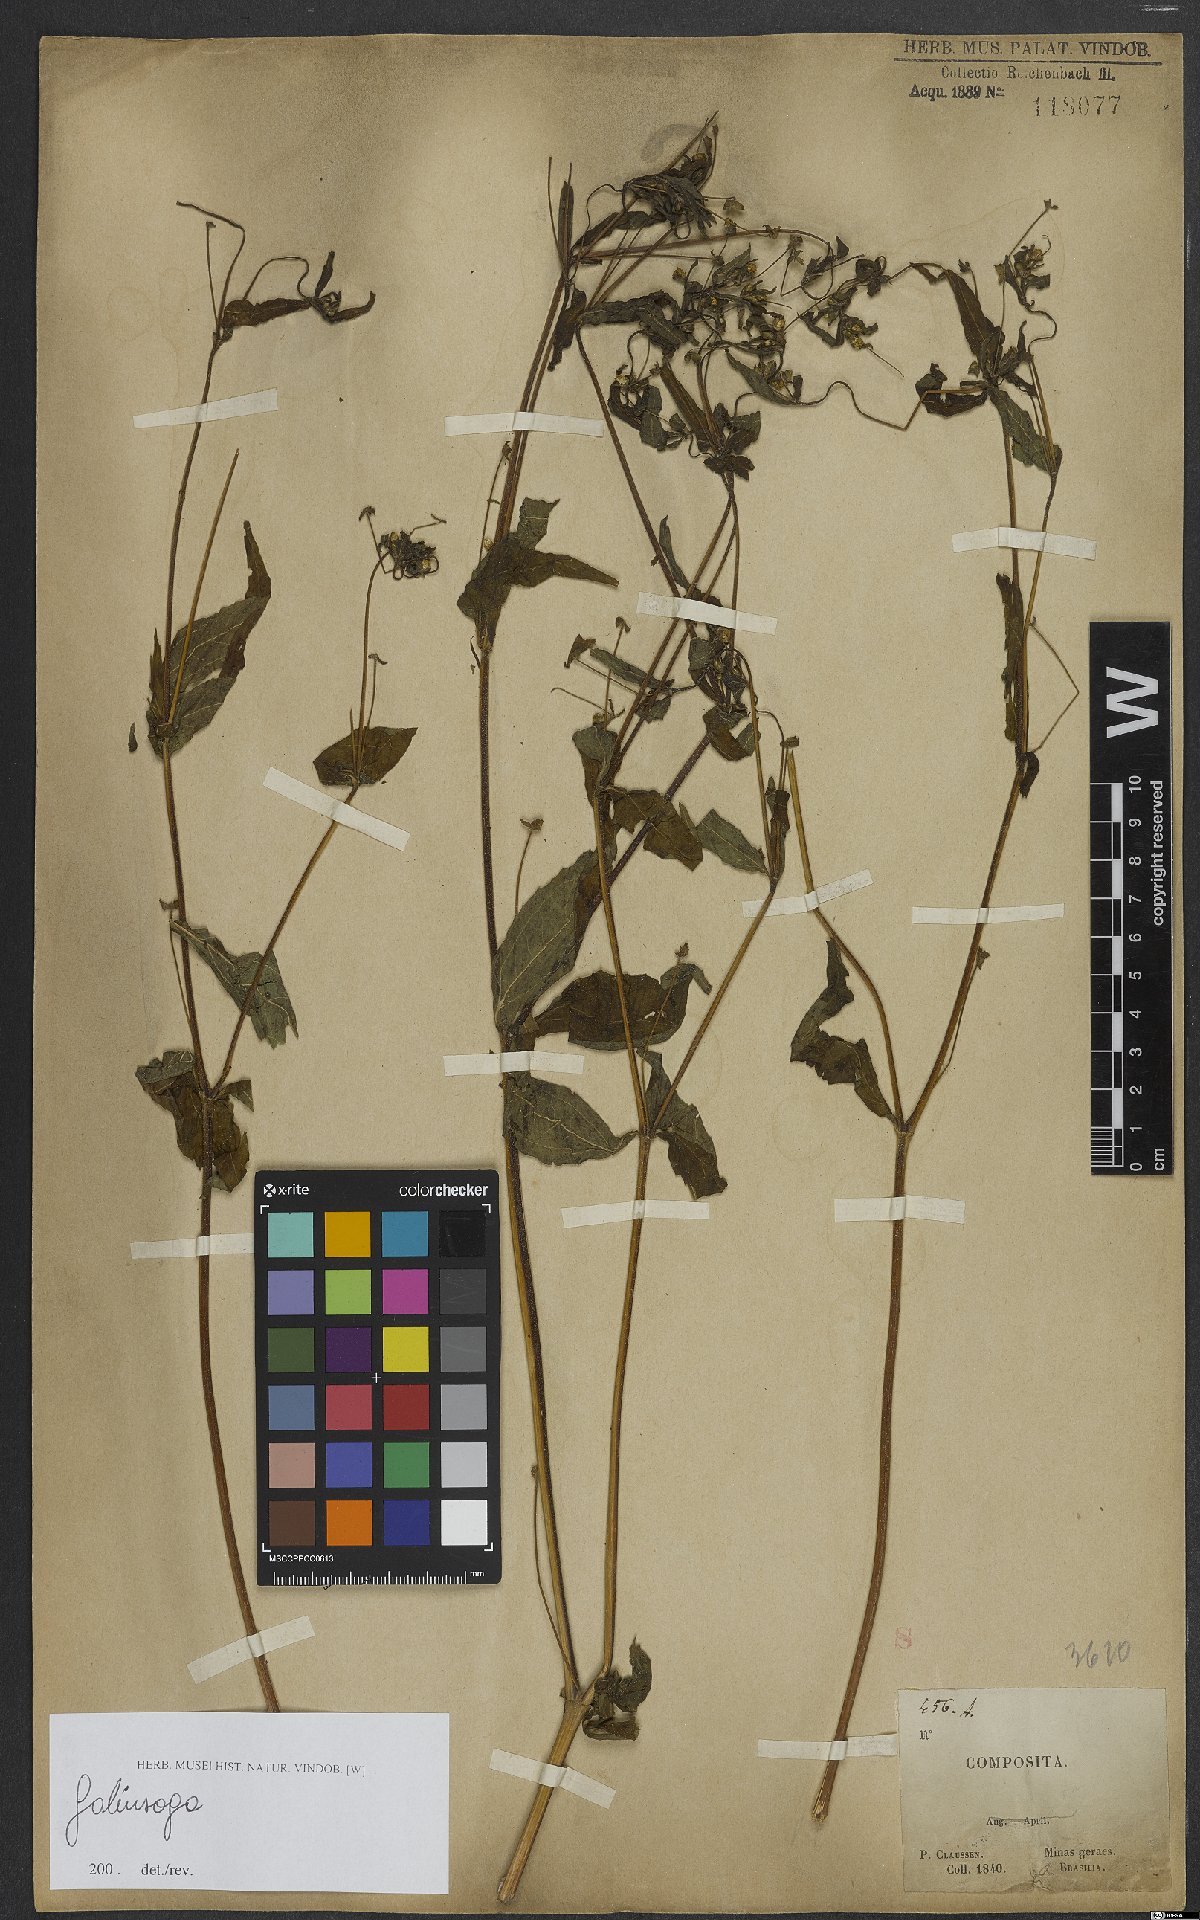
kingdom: Plantae
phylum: Tracheophyta
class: Magnoliopsida
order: Asterales
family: Asteraceae
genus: Galinsoga
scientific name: Galinsoga
